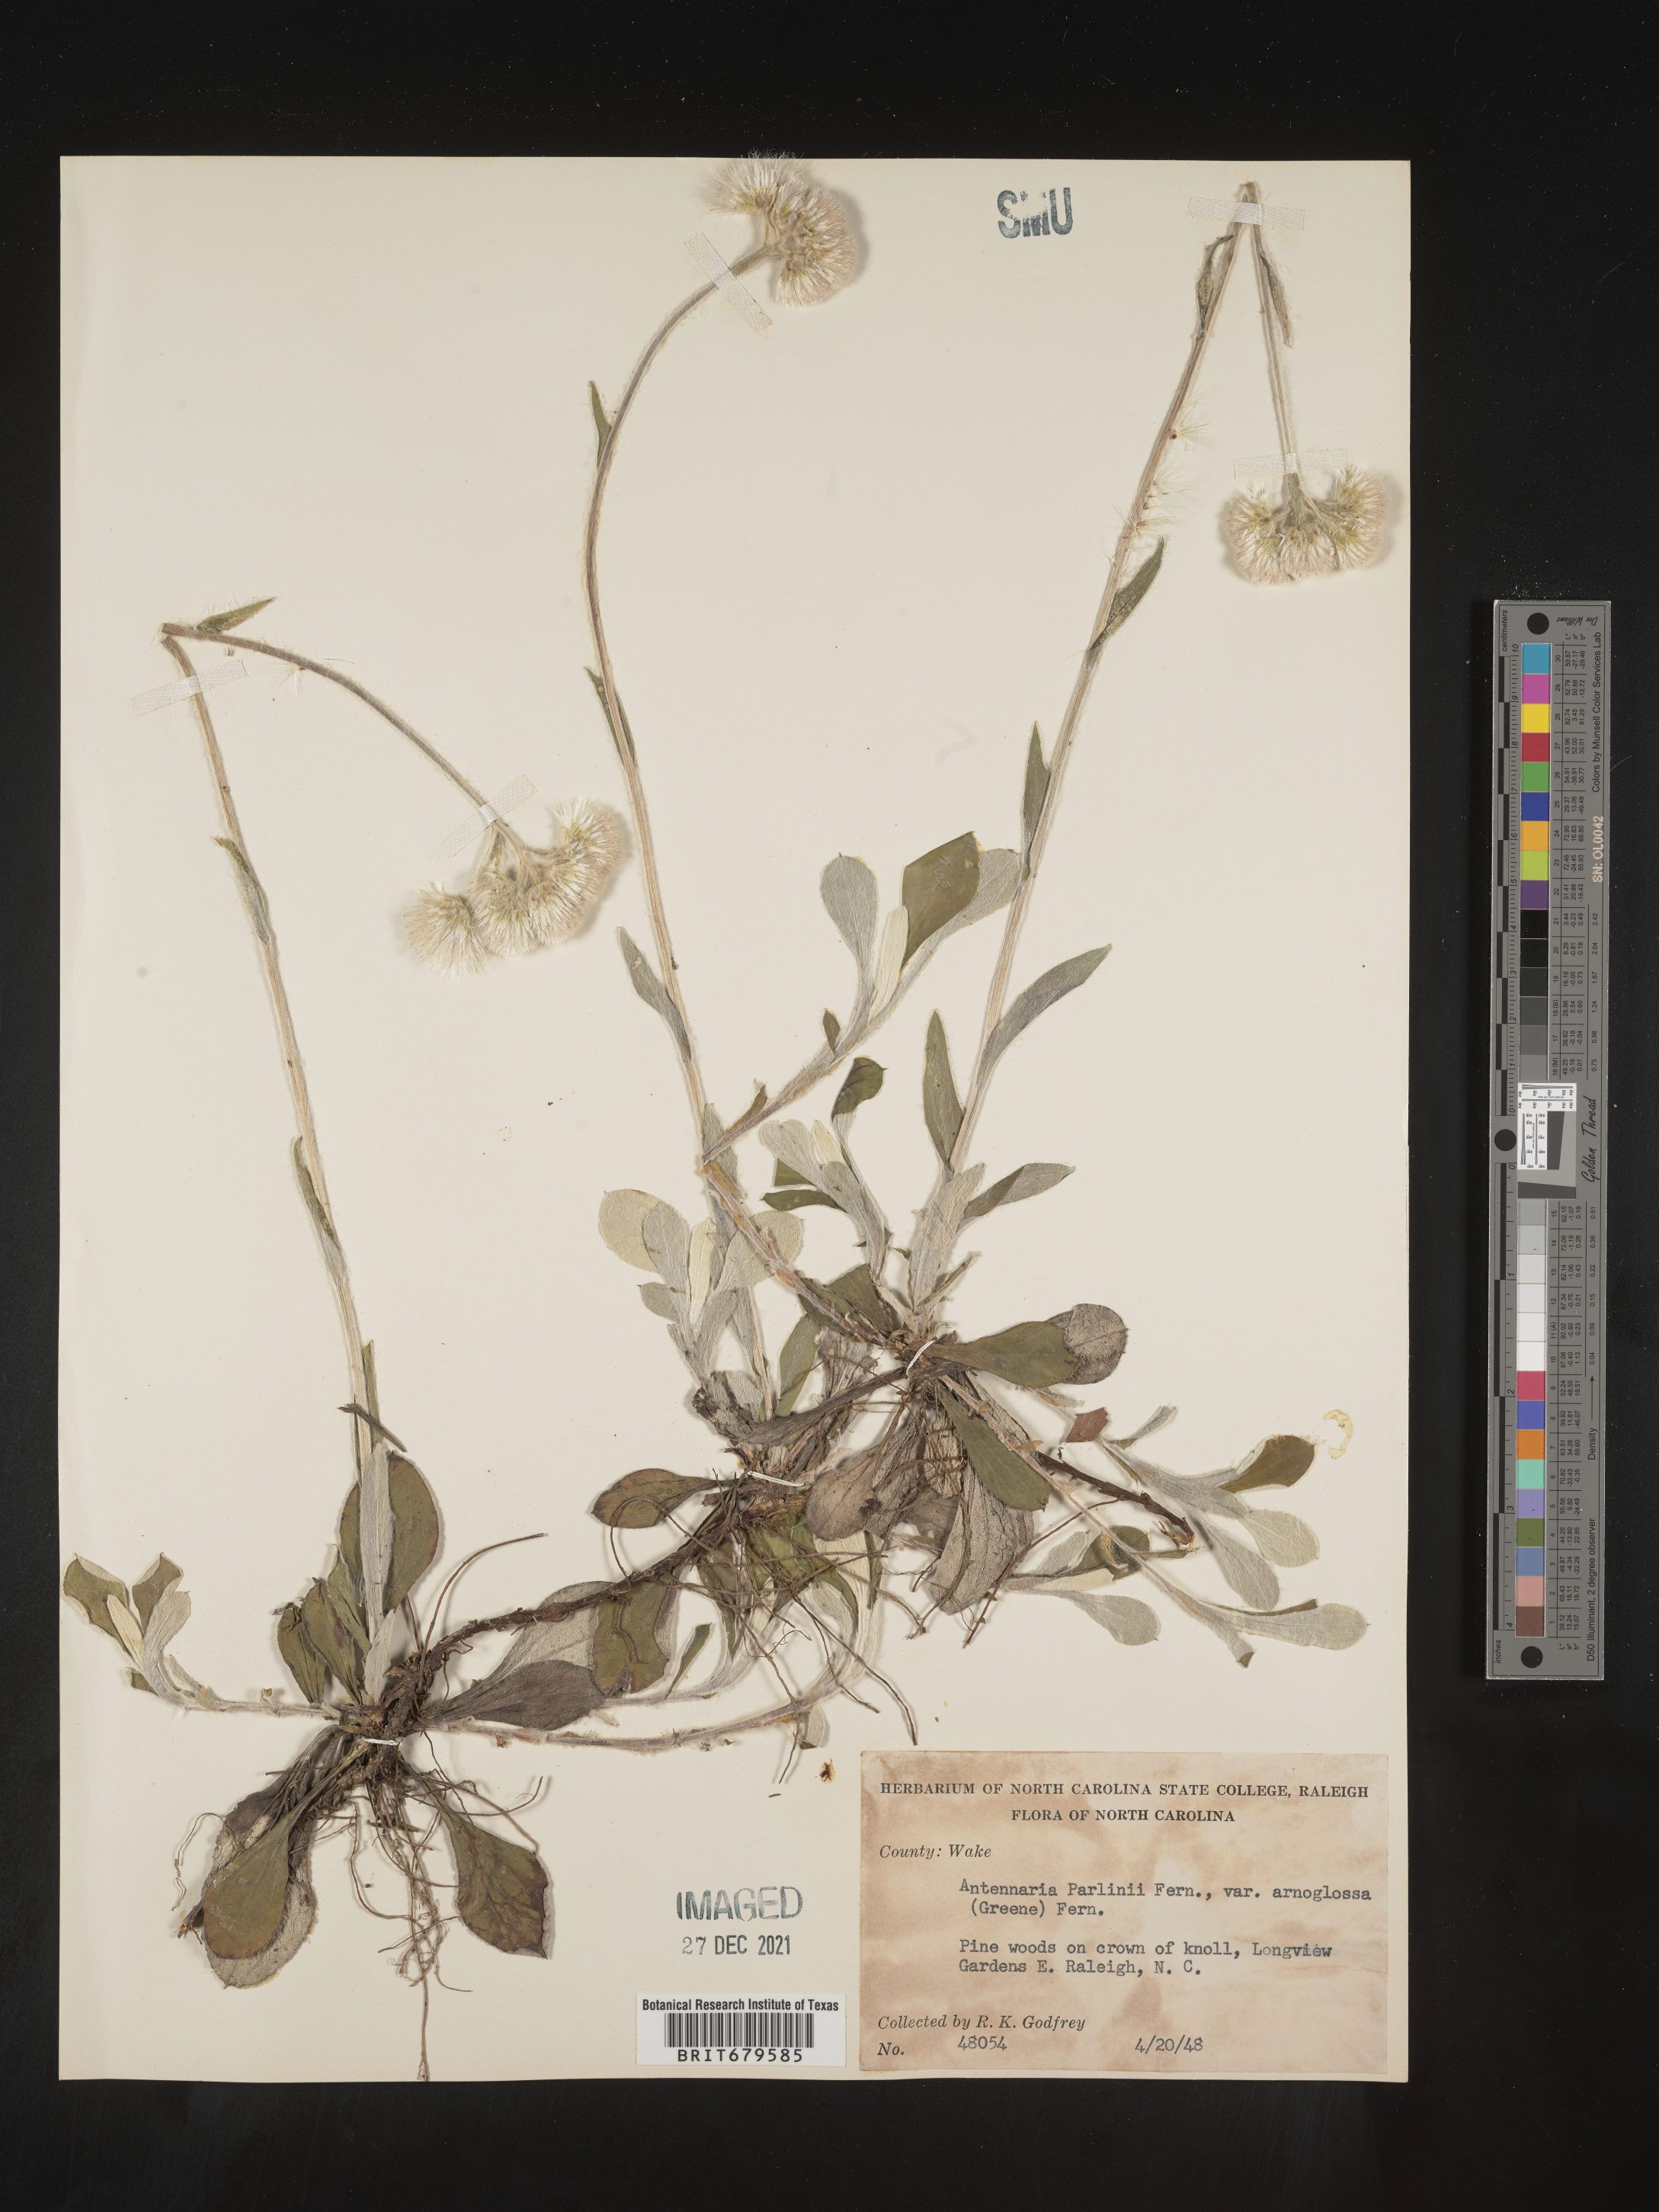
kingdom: Plantae
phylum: Tracheophyta
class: Magnoliopsida
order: Asterales
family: Asteraceae
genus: Antennaria
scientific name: Antennaria parlinii
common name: Parlin's pussytoes
